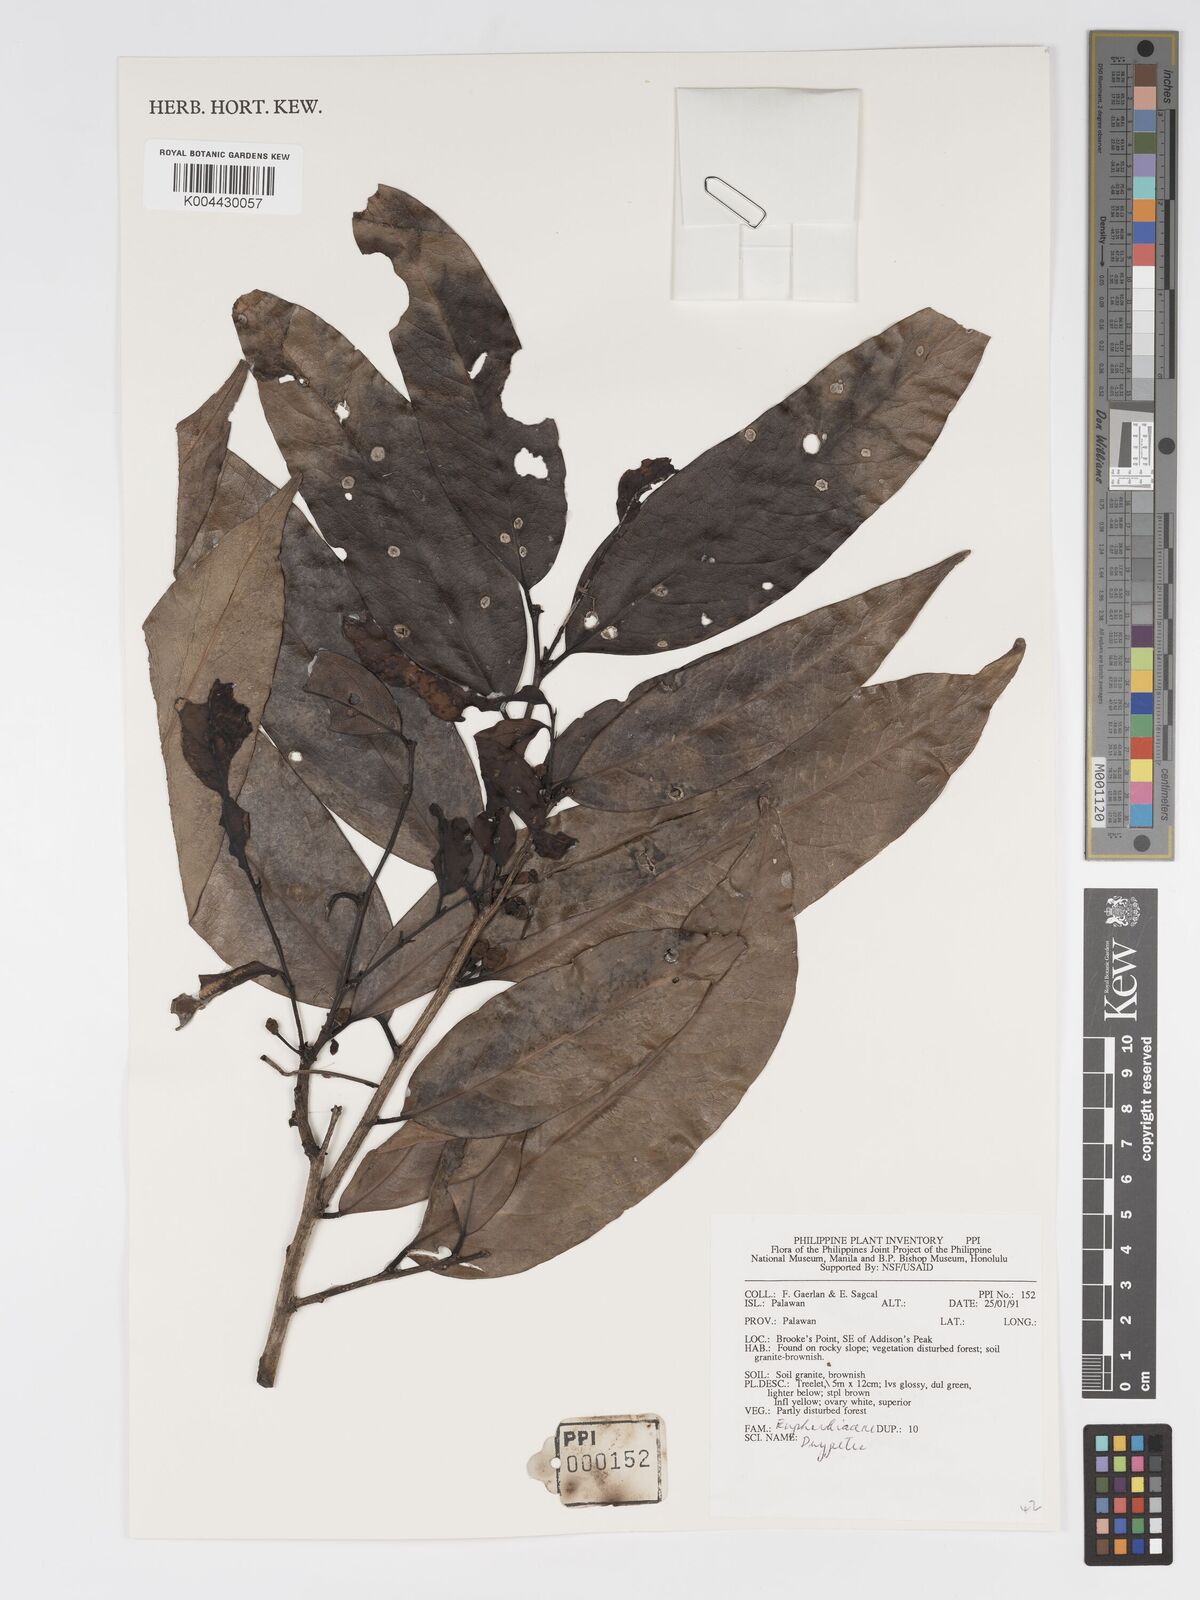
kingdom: Plantae
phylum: Tracheophyta
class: Magnoliopsida
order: Malpighiales
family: Putranjivaceae
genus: Drypetes
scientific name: Drypetes
